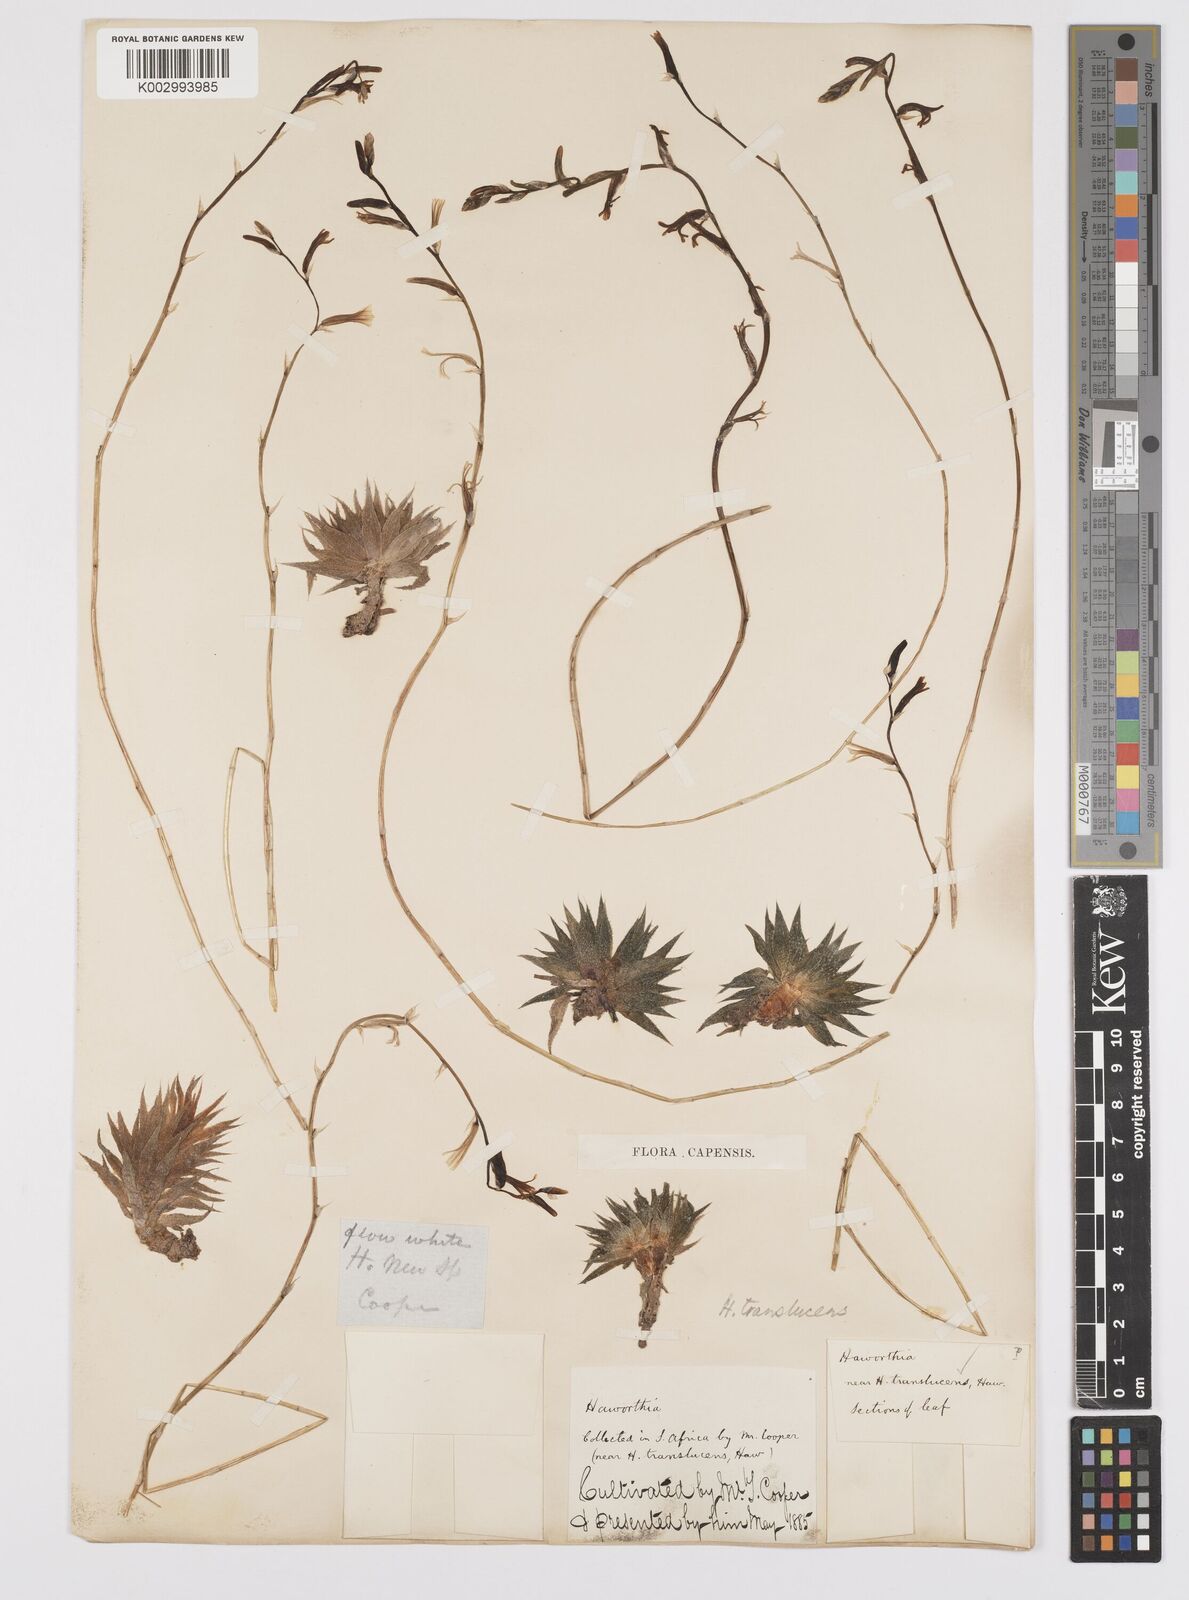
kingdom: Plantae
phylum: Tracheophyta
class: Liliopsida
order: Asparagales
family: Asphodelaceae
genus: Haworthia
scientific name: Haworthia herbacea
